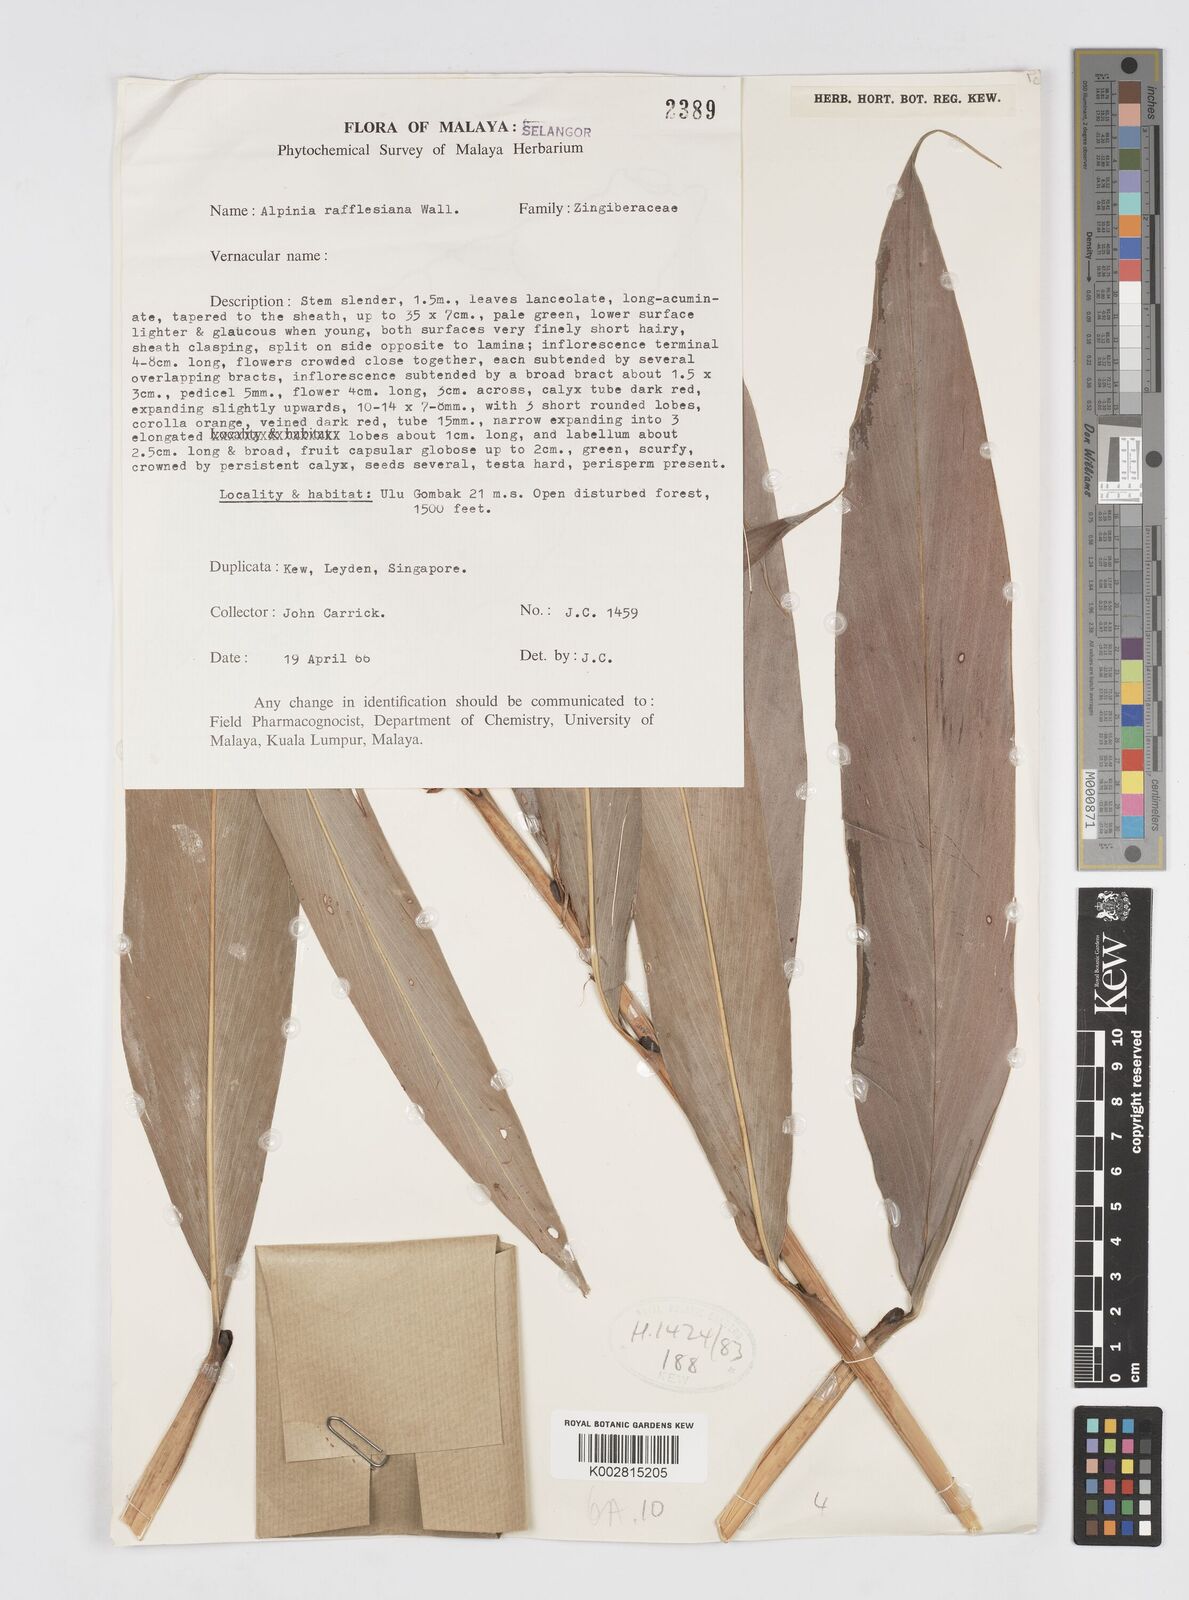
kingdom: Plantae
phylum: Tracheophyta
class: Liliopsida
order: Zingiberales
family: Zingiberaceae
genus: Alpinia
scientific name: Alpinia rafflesiana
